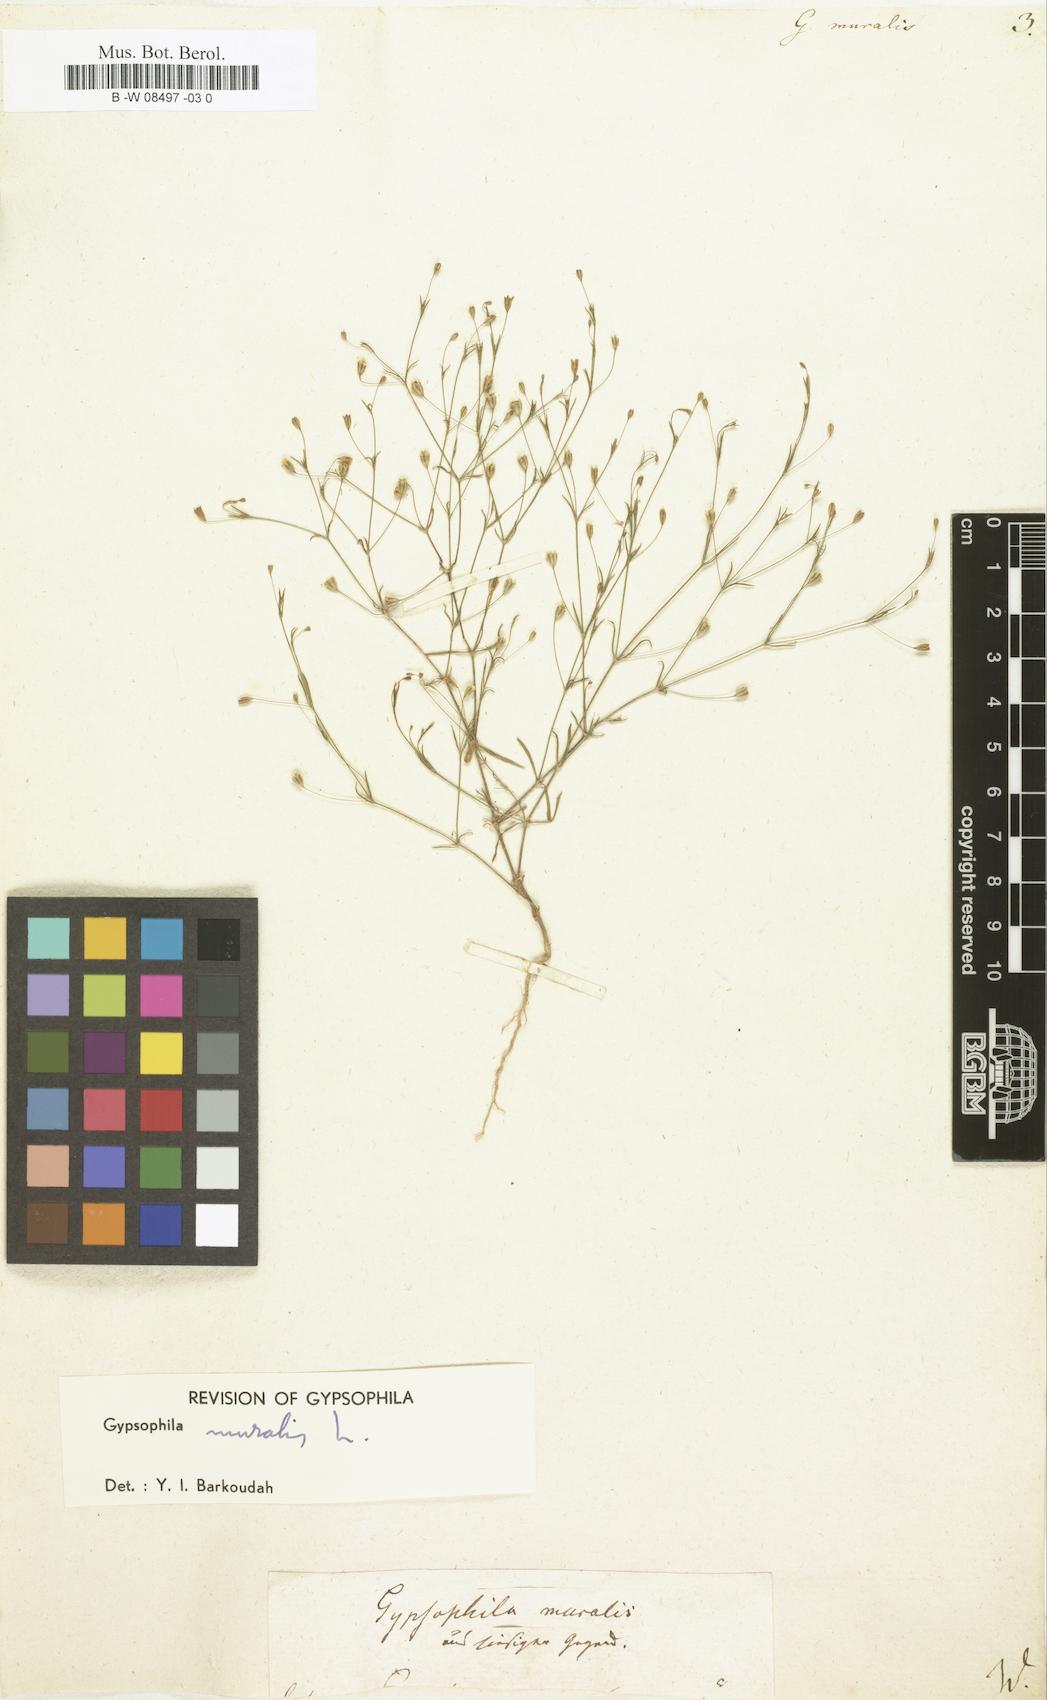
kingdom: Plantae
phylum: Tracheophyta
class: Magnoliopsida
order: Caryophyllales
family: Caryophyllaceae
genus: Psammophiliella
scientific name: Psammophiliella muralis
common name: Cushion baby's-breath
